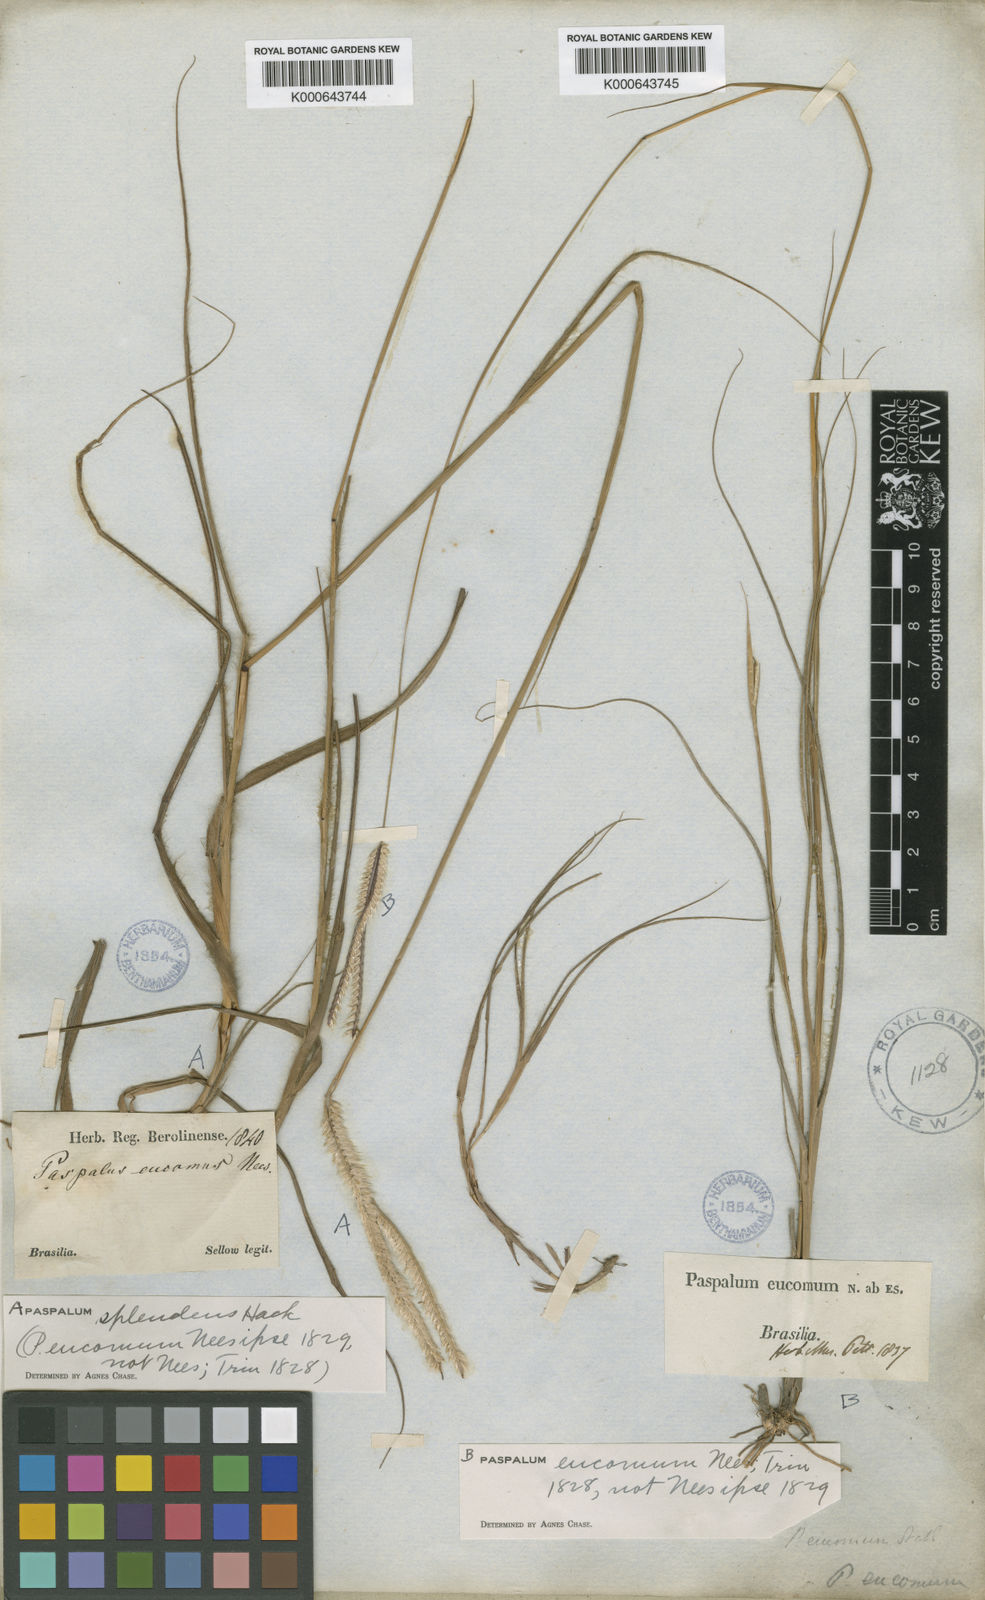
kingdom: Plantae
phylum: Tracheophyta
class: Liliopsida
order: Poales
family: Poaceae
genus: Paspalum
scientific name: Paspalum
